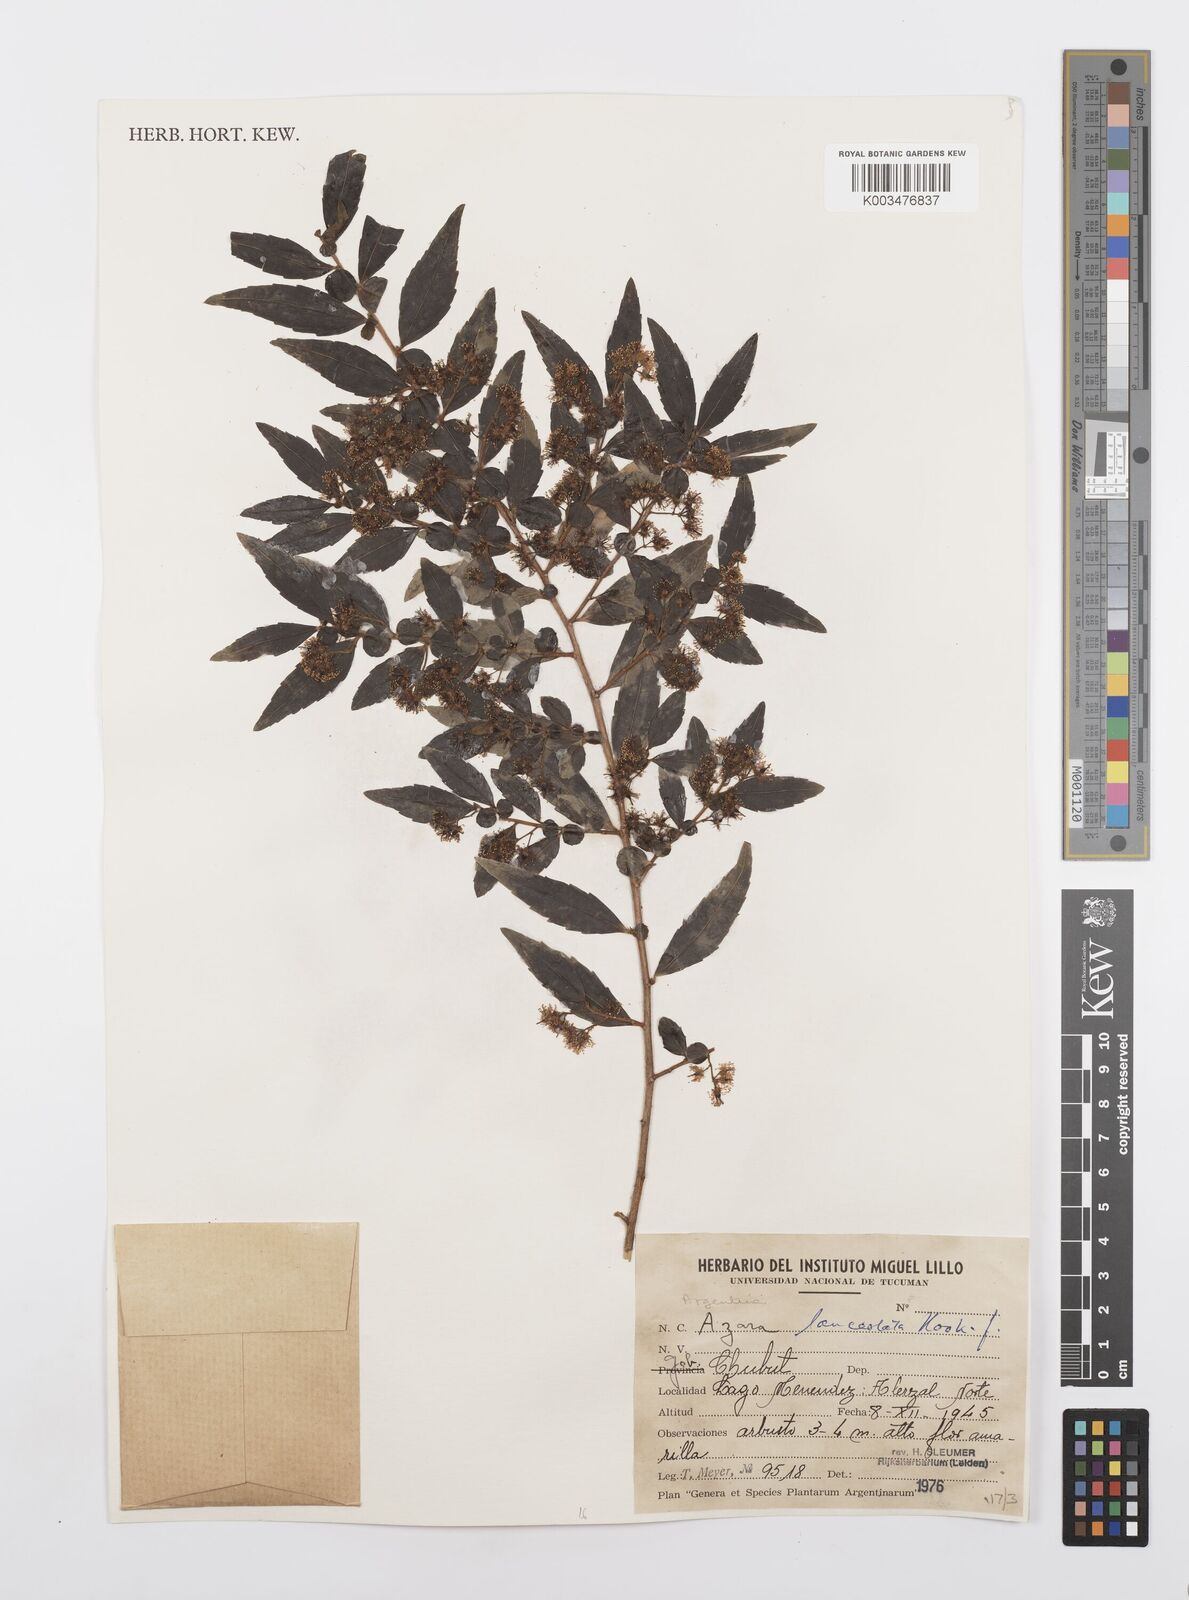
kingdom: Plantae
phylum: Tracheophyta
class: Magnoliopsida
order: Malpighiales
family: Salicaceae
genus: Azara
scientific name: Azara lanceolata
